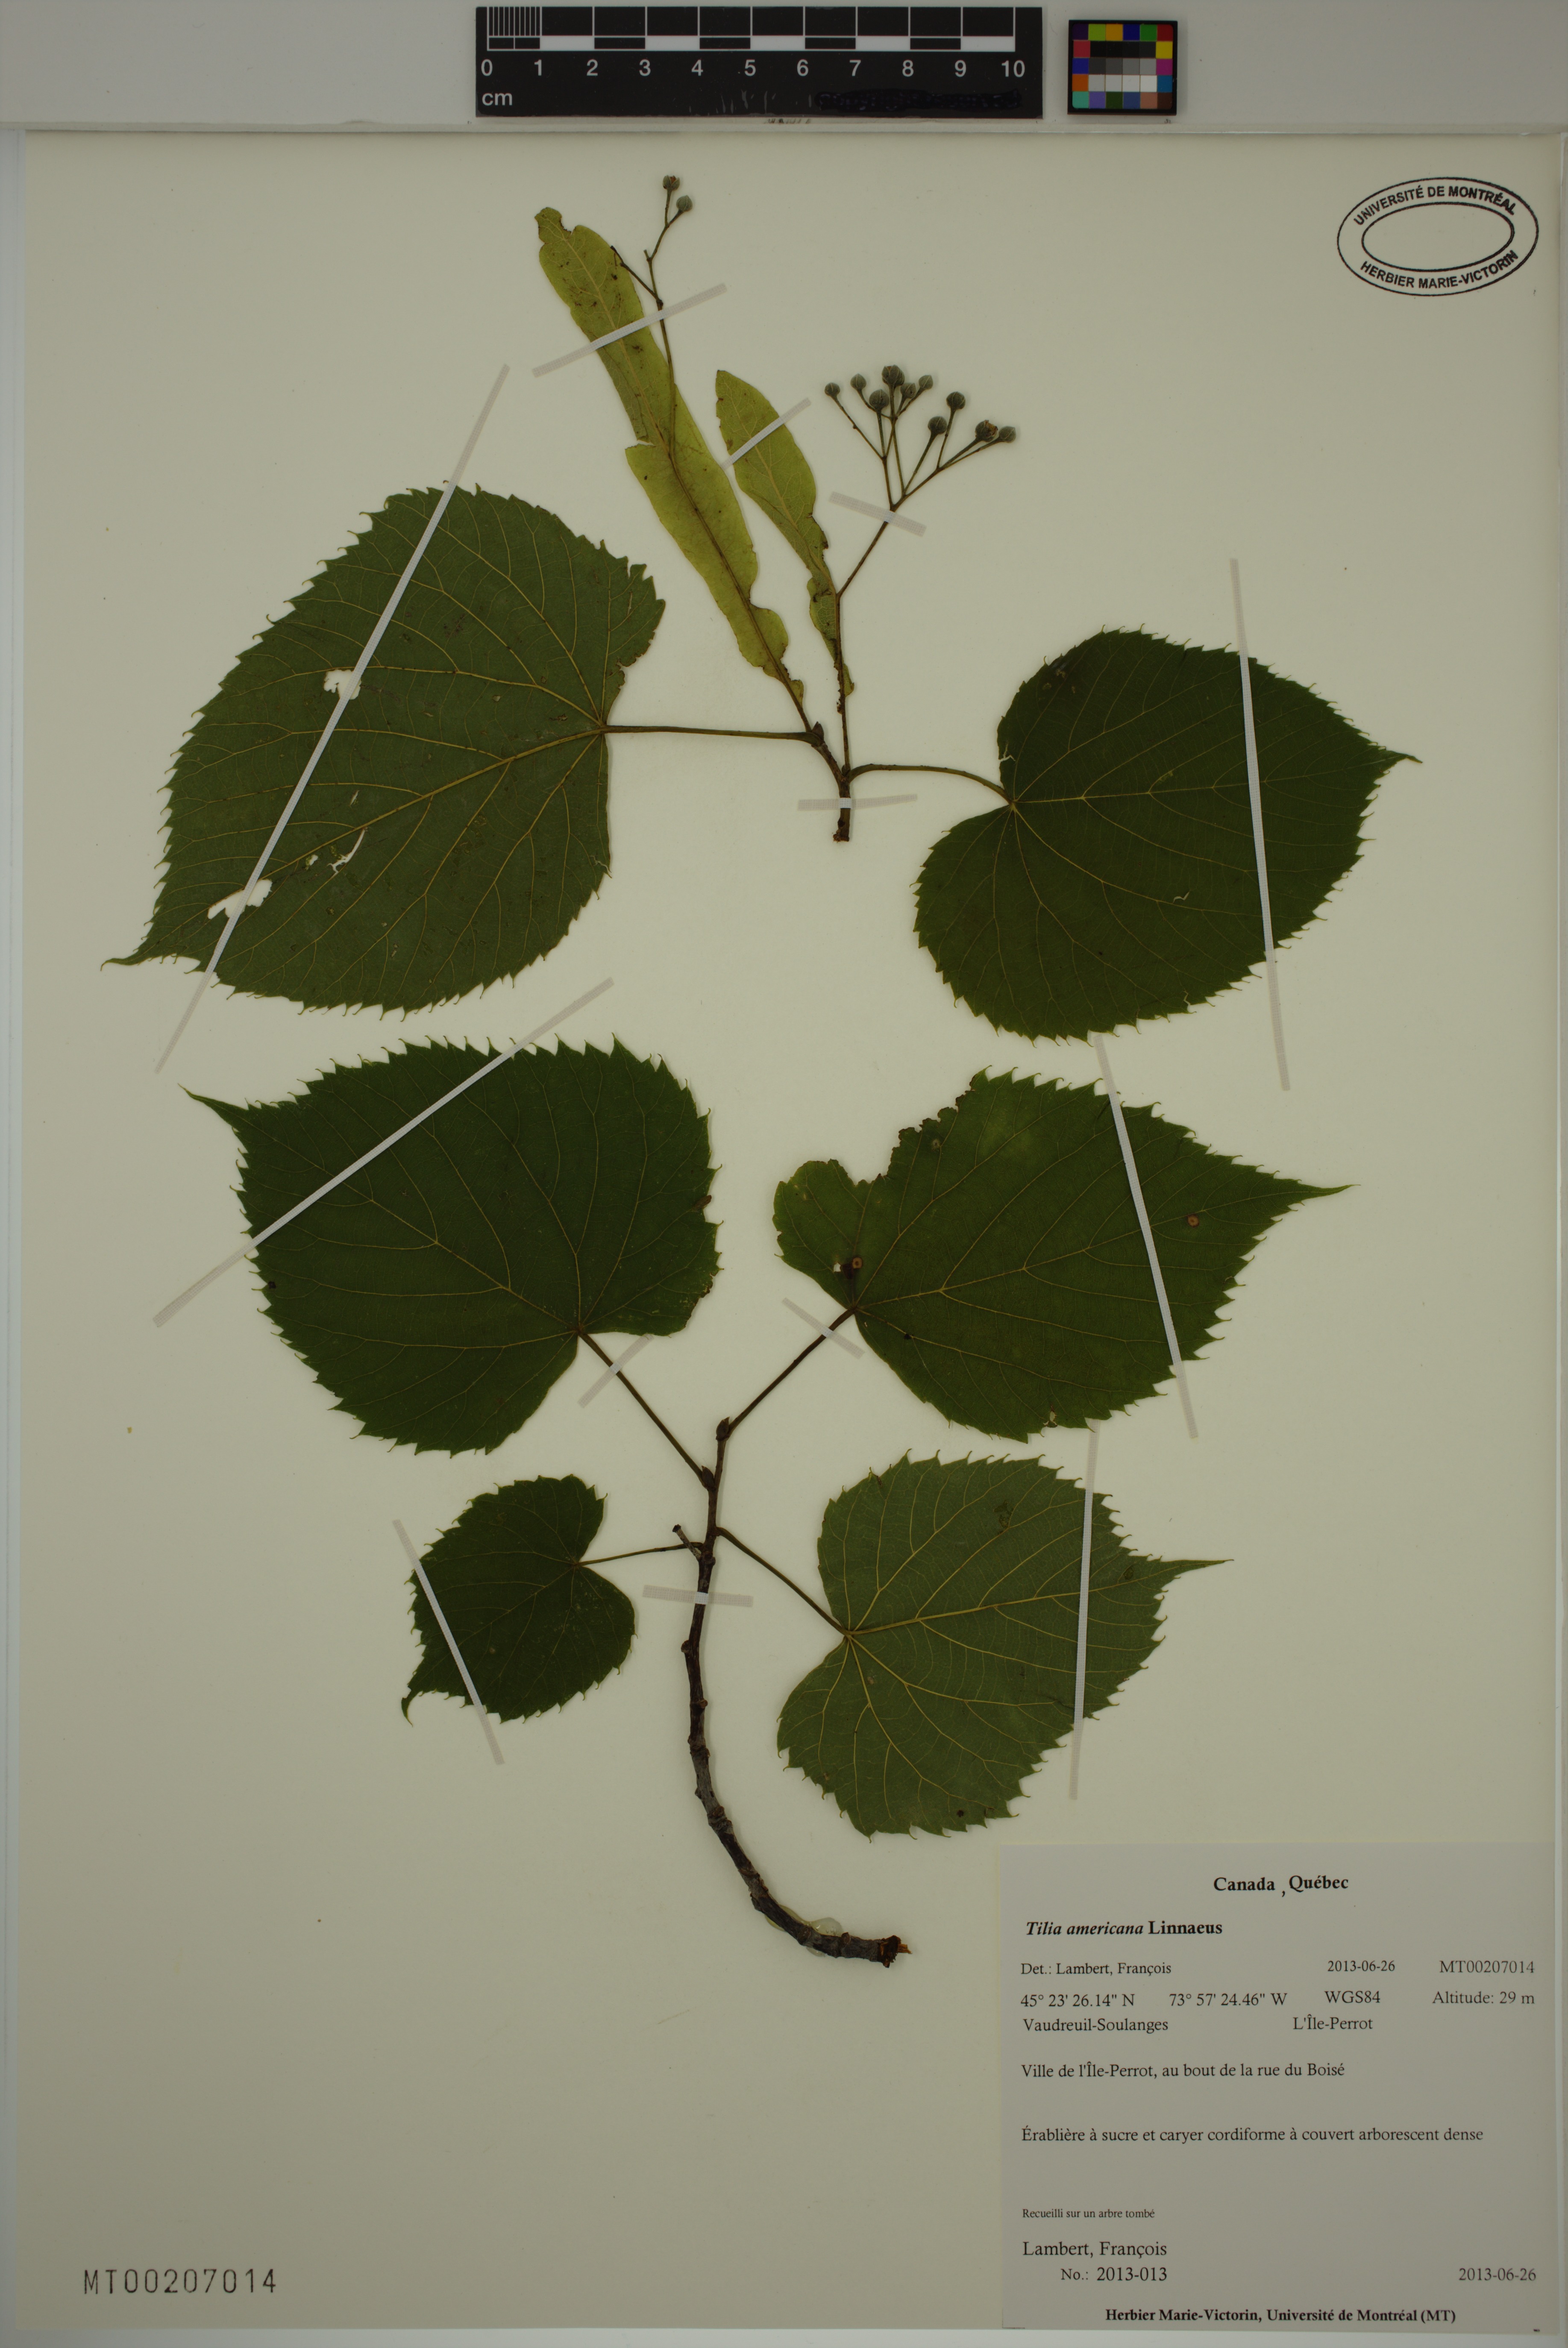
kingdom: Plantae
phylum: Tracheophyta
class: Magnoliopsida
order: Malvales
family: Malvaceae
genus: Tilia
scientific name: Tilia americana
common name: Basswood
